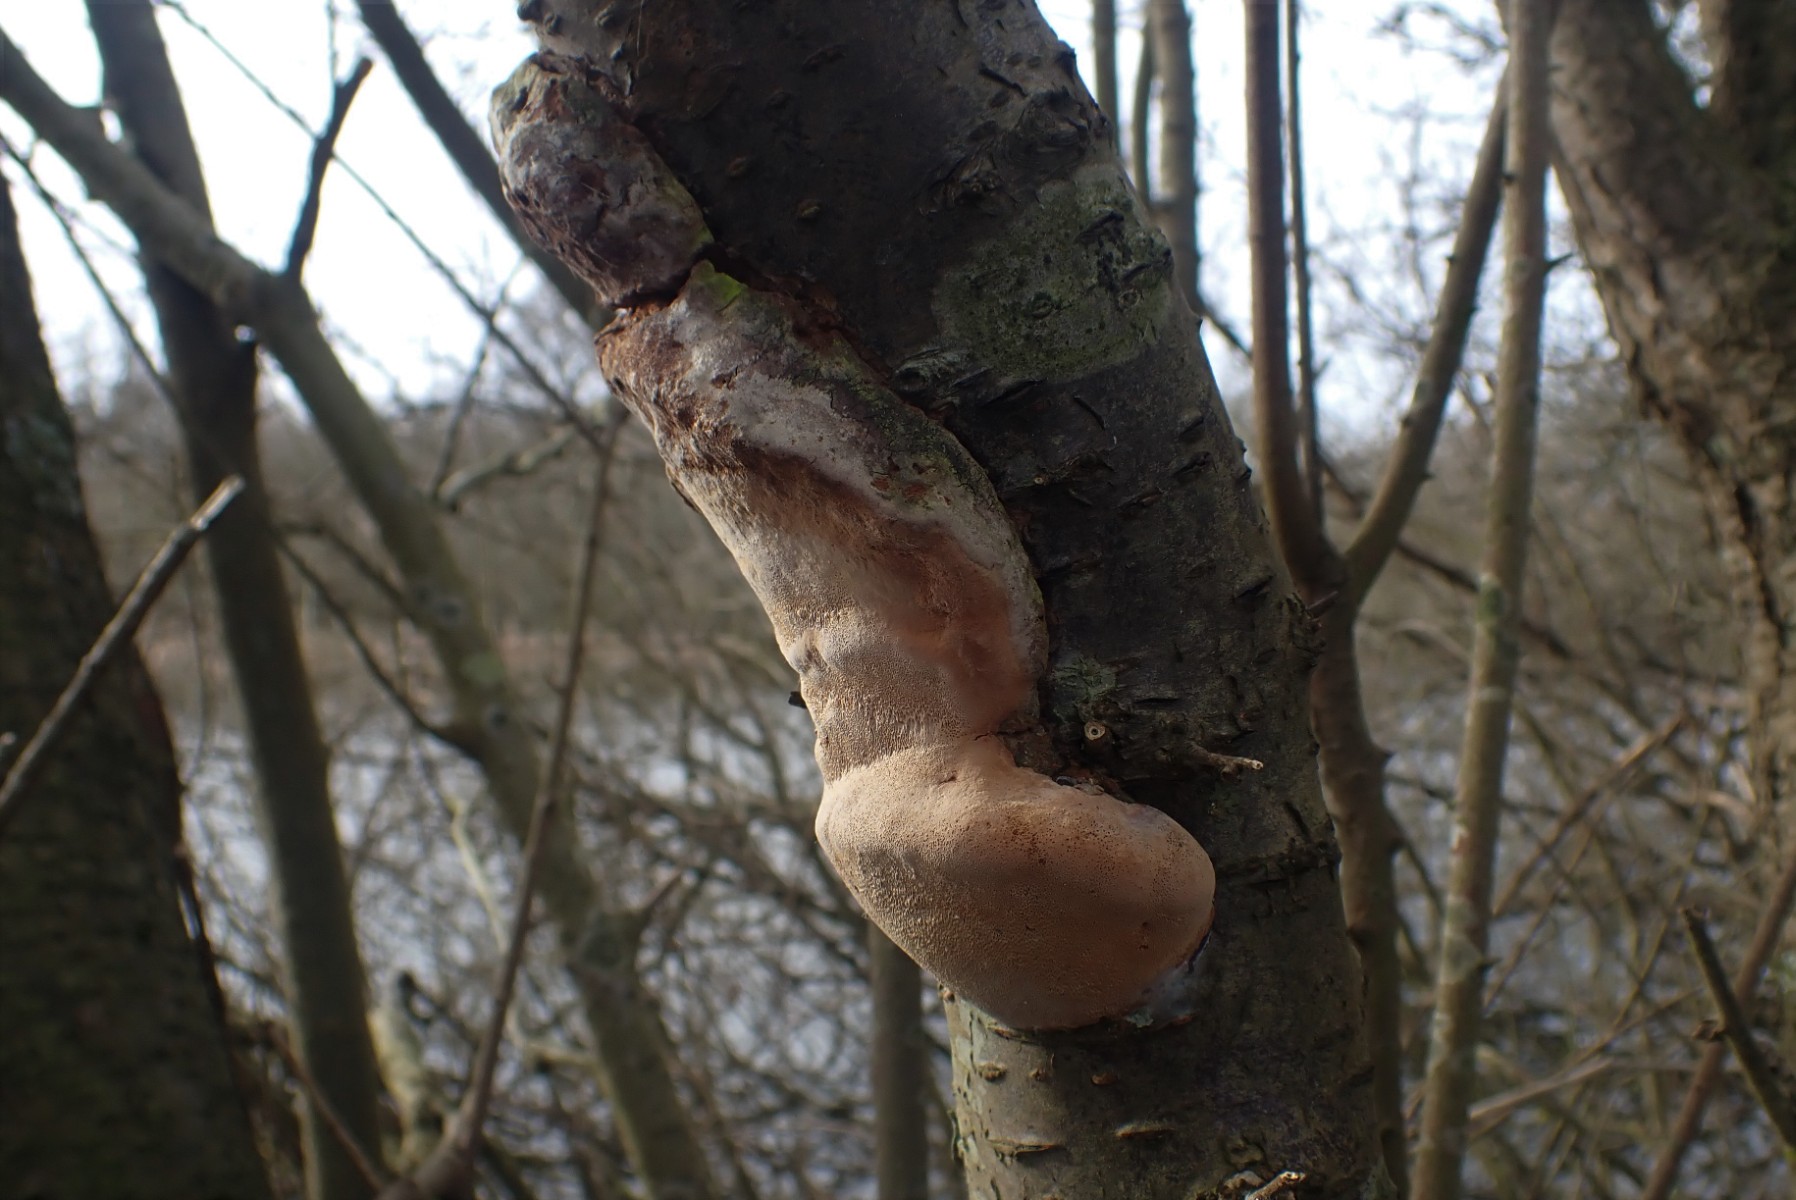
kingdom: Fungi
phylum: Basidiomycota
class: Agaricomycetes
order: Hymenochaetales
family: Hymenochaetaceae
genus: Phellinus
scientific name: Phellinus pomaceus
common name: blomme-ildporesvamp
